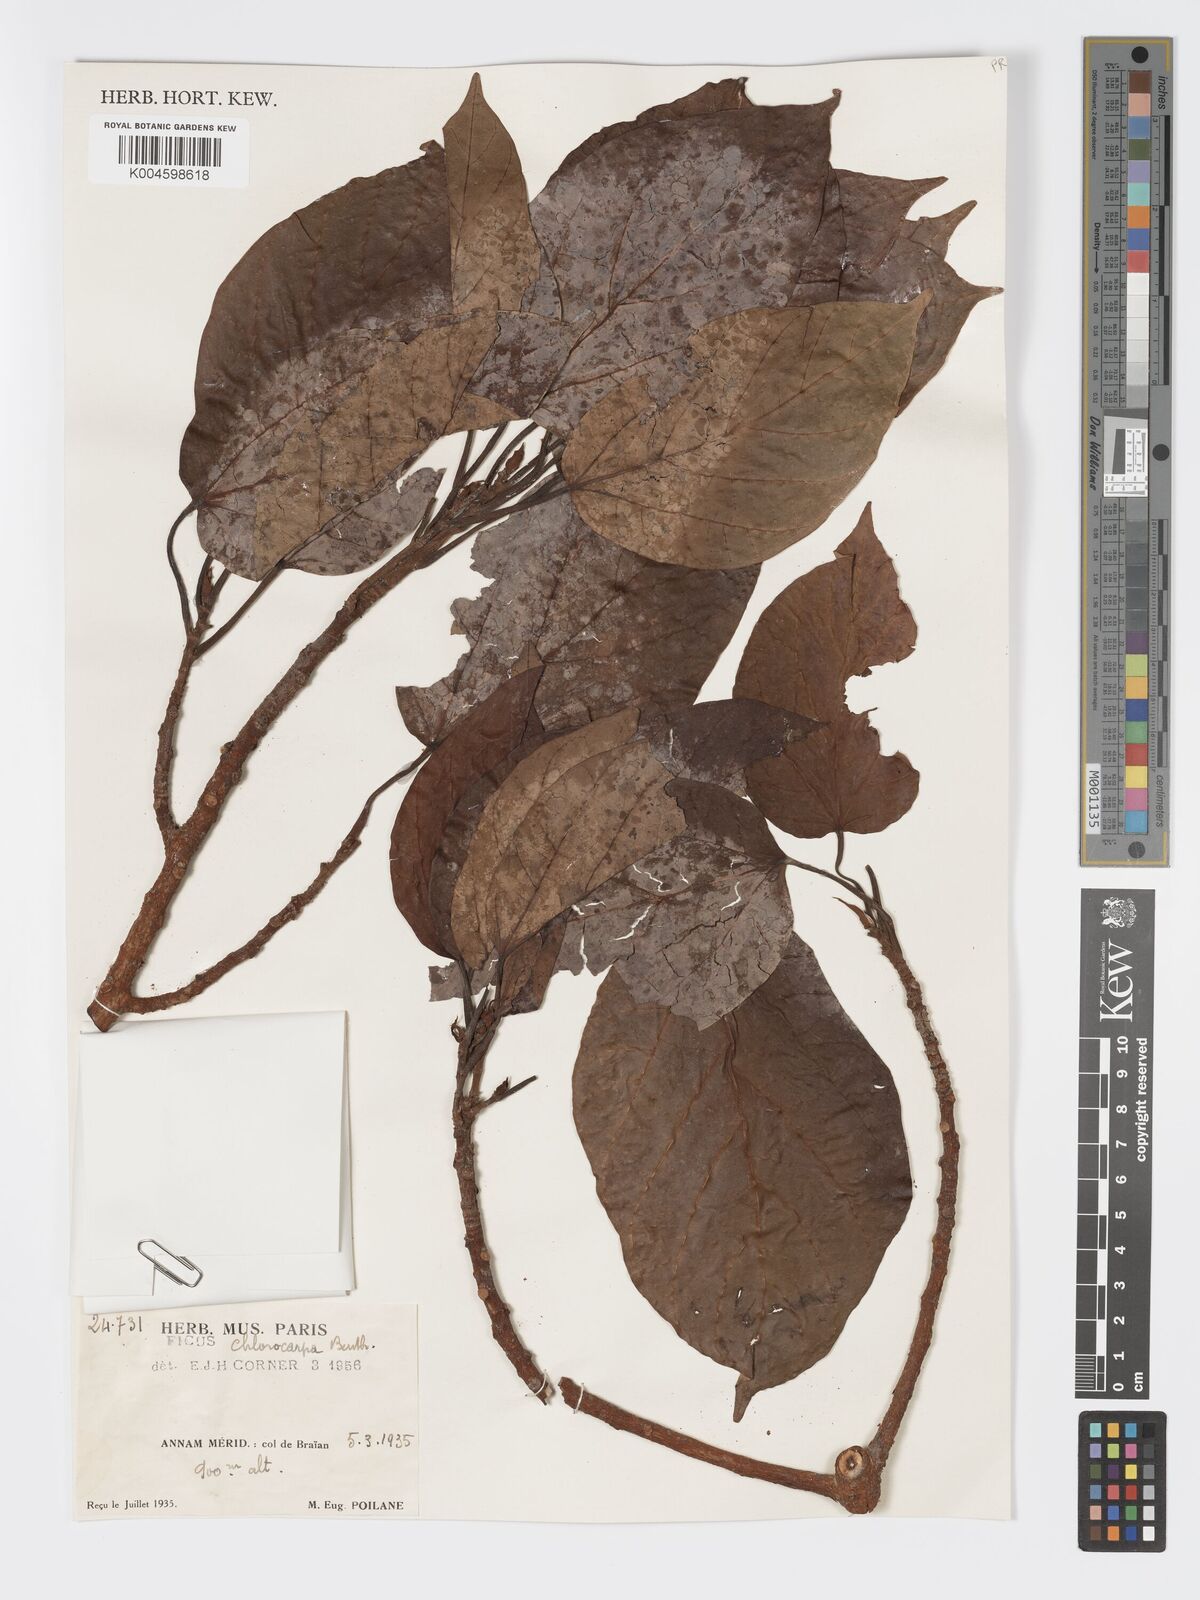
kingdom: Plantae
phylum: Tracheophyta
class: Magnoliopsida
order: Rosales
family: Moraceae
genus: Ficus
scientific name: Ficus variegata
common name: Variegated fig
